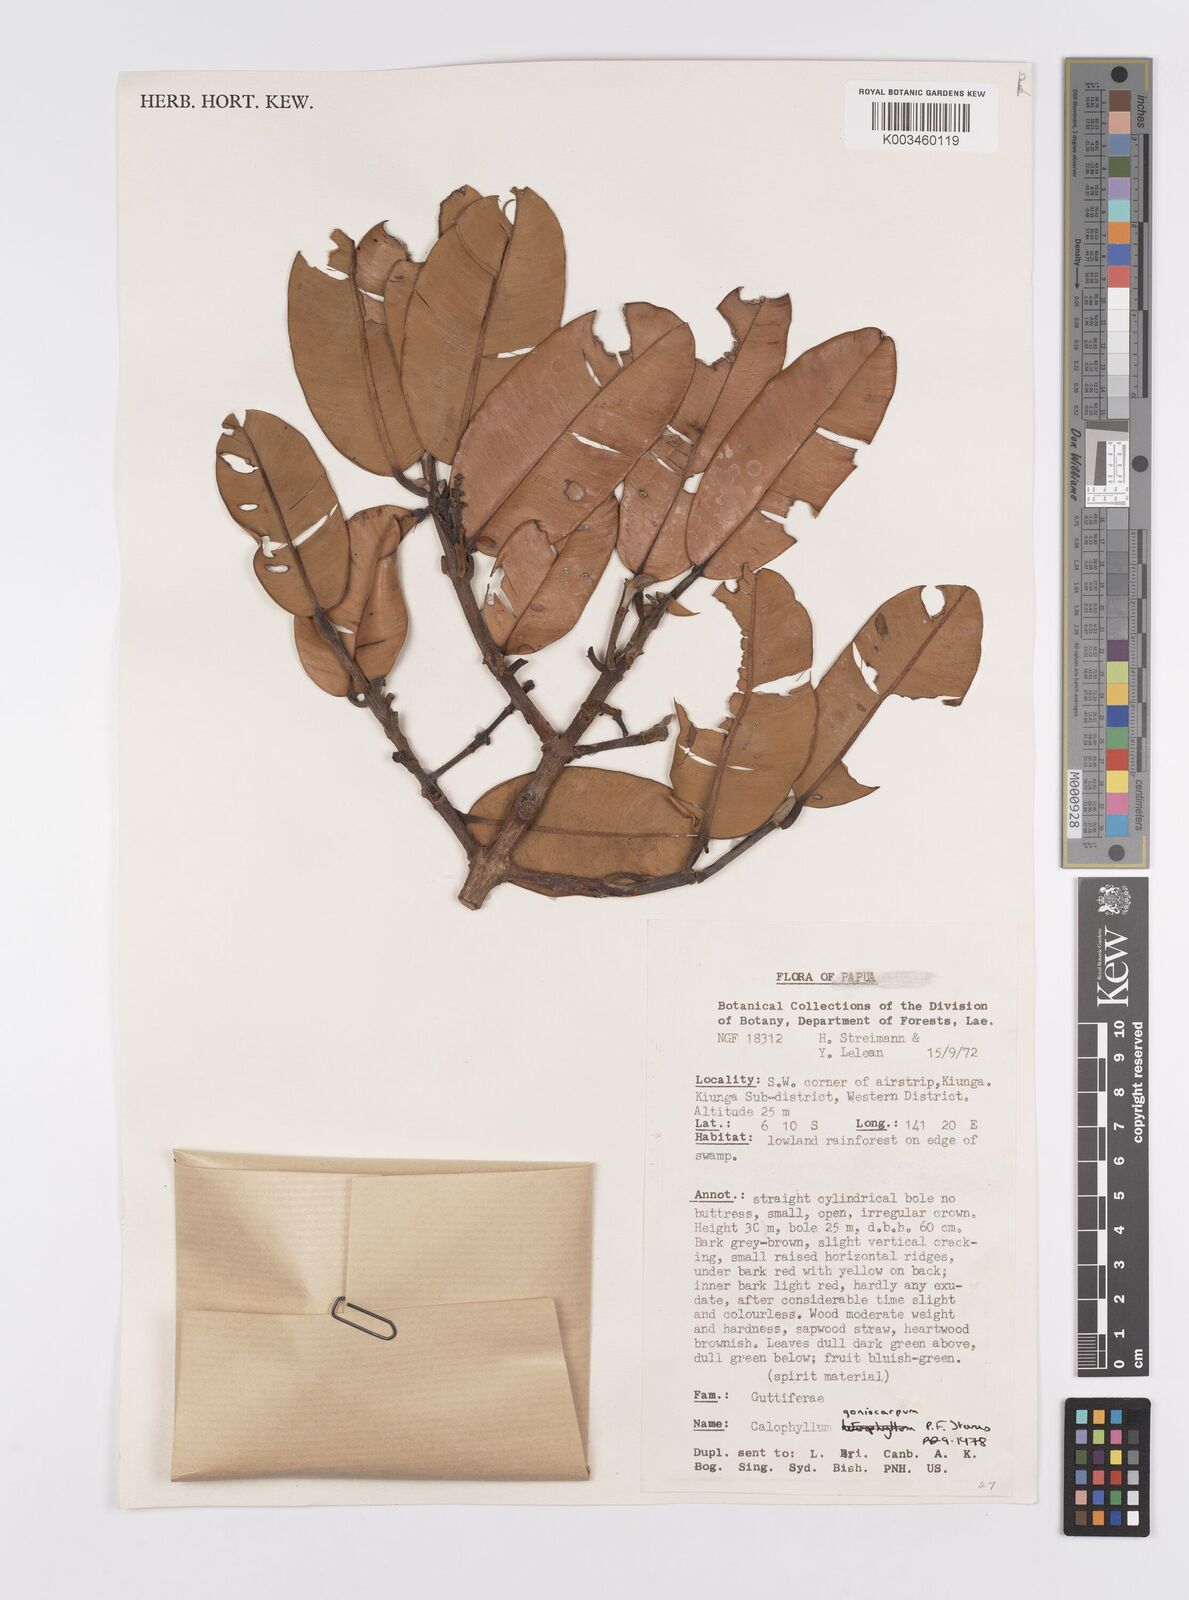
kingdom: Plantae
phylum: Tracheophyta
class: Magnoliopsida
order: Malpighiales
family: Calophyllaceae
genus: Calophyllum
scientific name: Calophyllum goniocarpum
